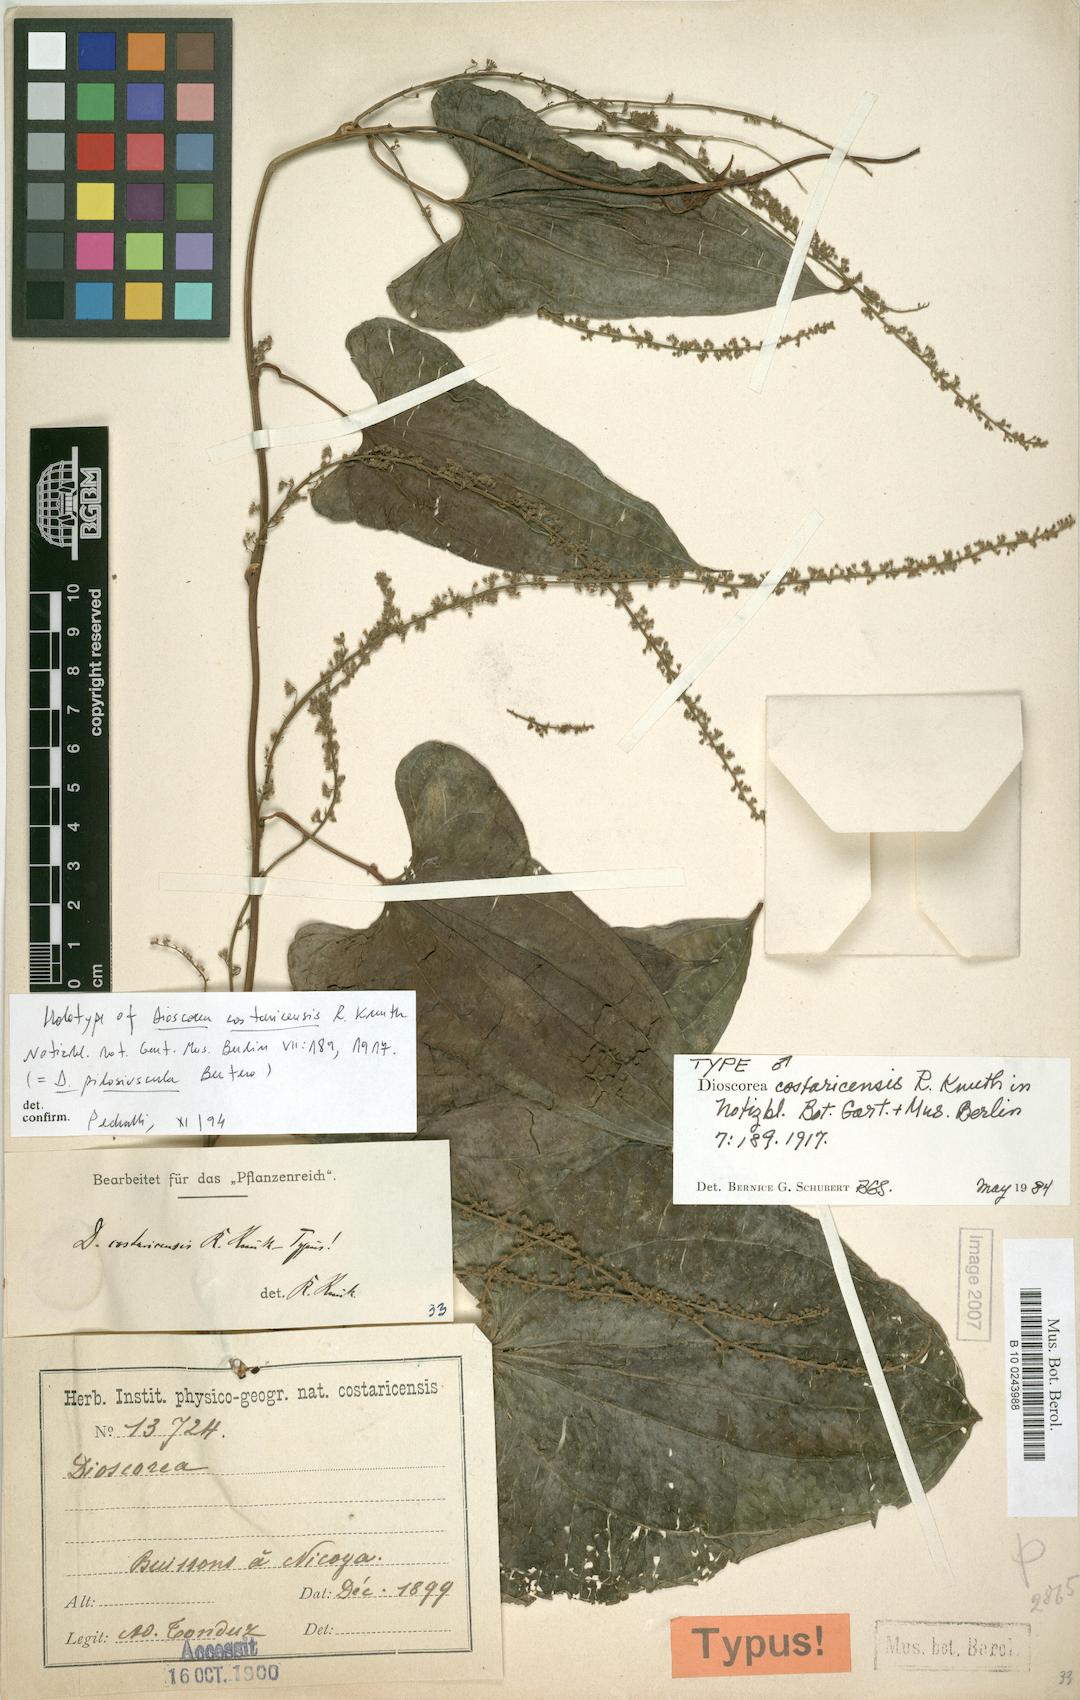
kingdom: Plantae
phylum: Tracheophyta
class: Liliopsida
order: Dioscoreales
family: Dioscoreaceae
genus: Dioscorea
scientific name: Dioscorea pilosiuscula
